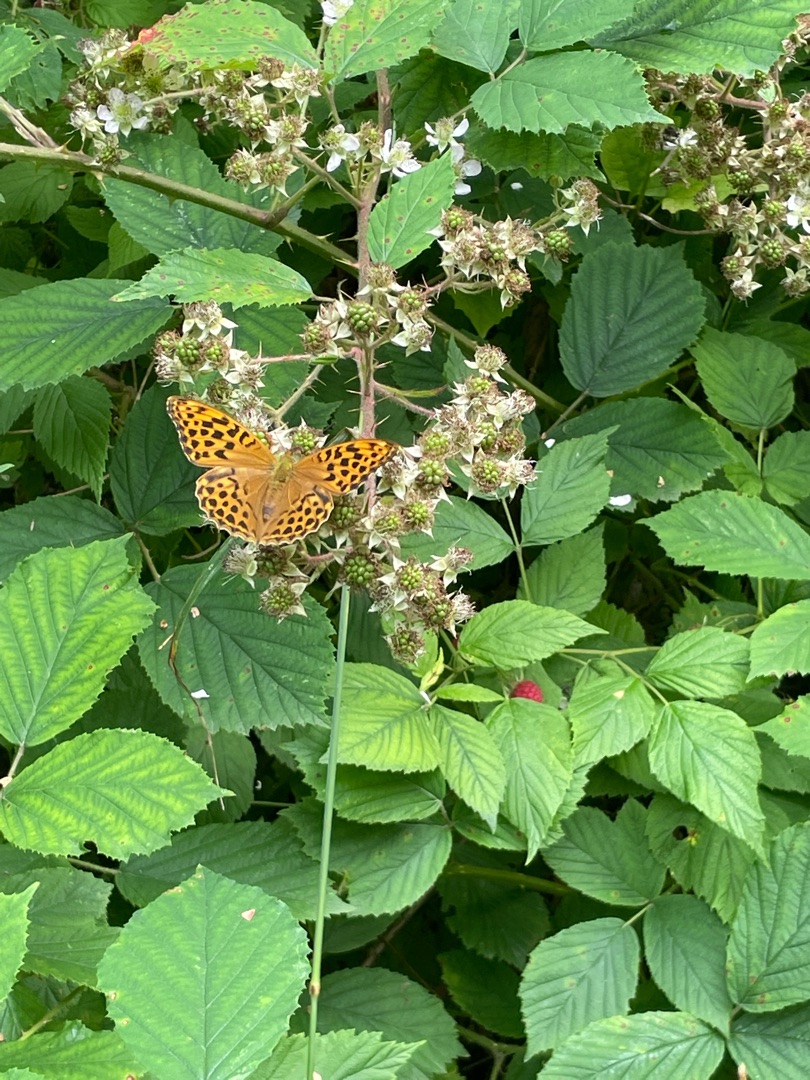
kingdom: Animalia
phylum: Arthropoda
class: Insecta
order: Lepidoptera
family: Nymphalidae
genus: Argynnis
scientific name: Argynnis paphia
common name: Kejserkåbe
